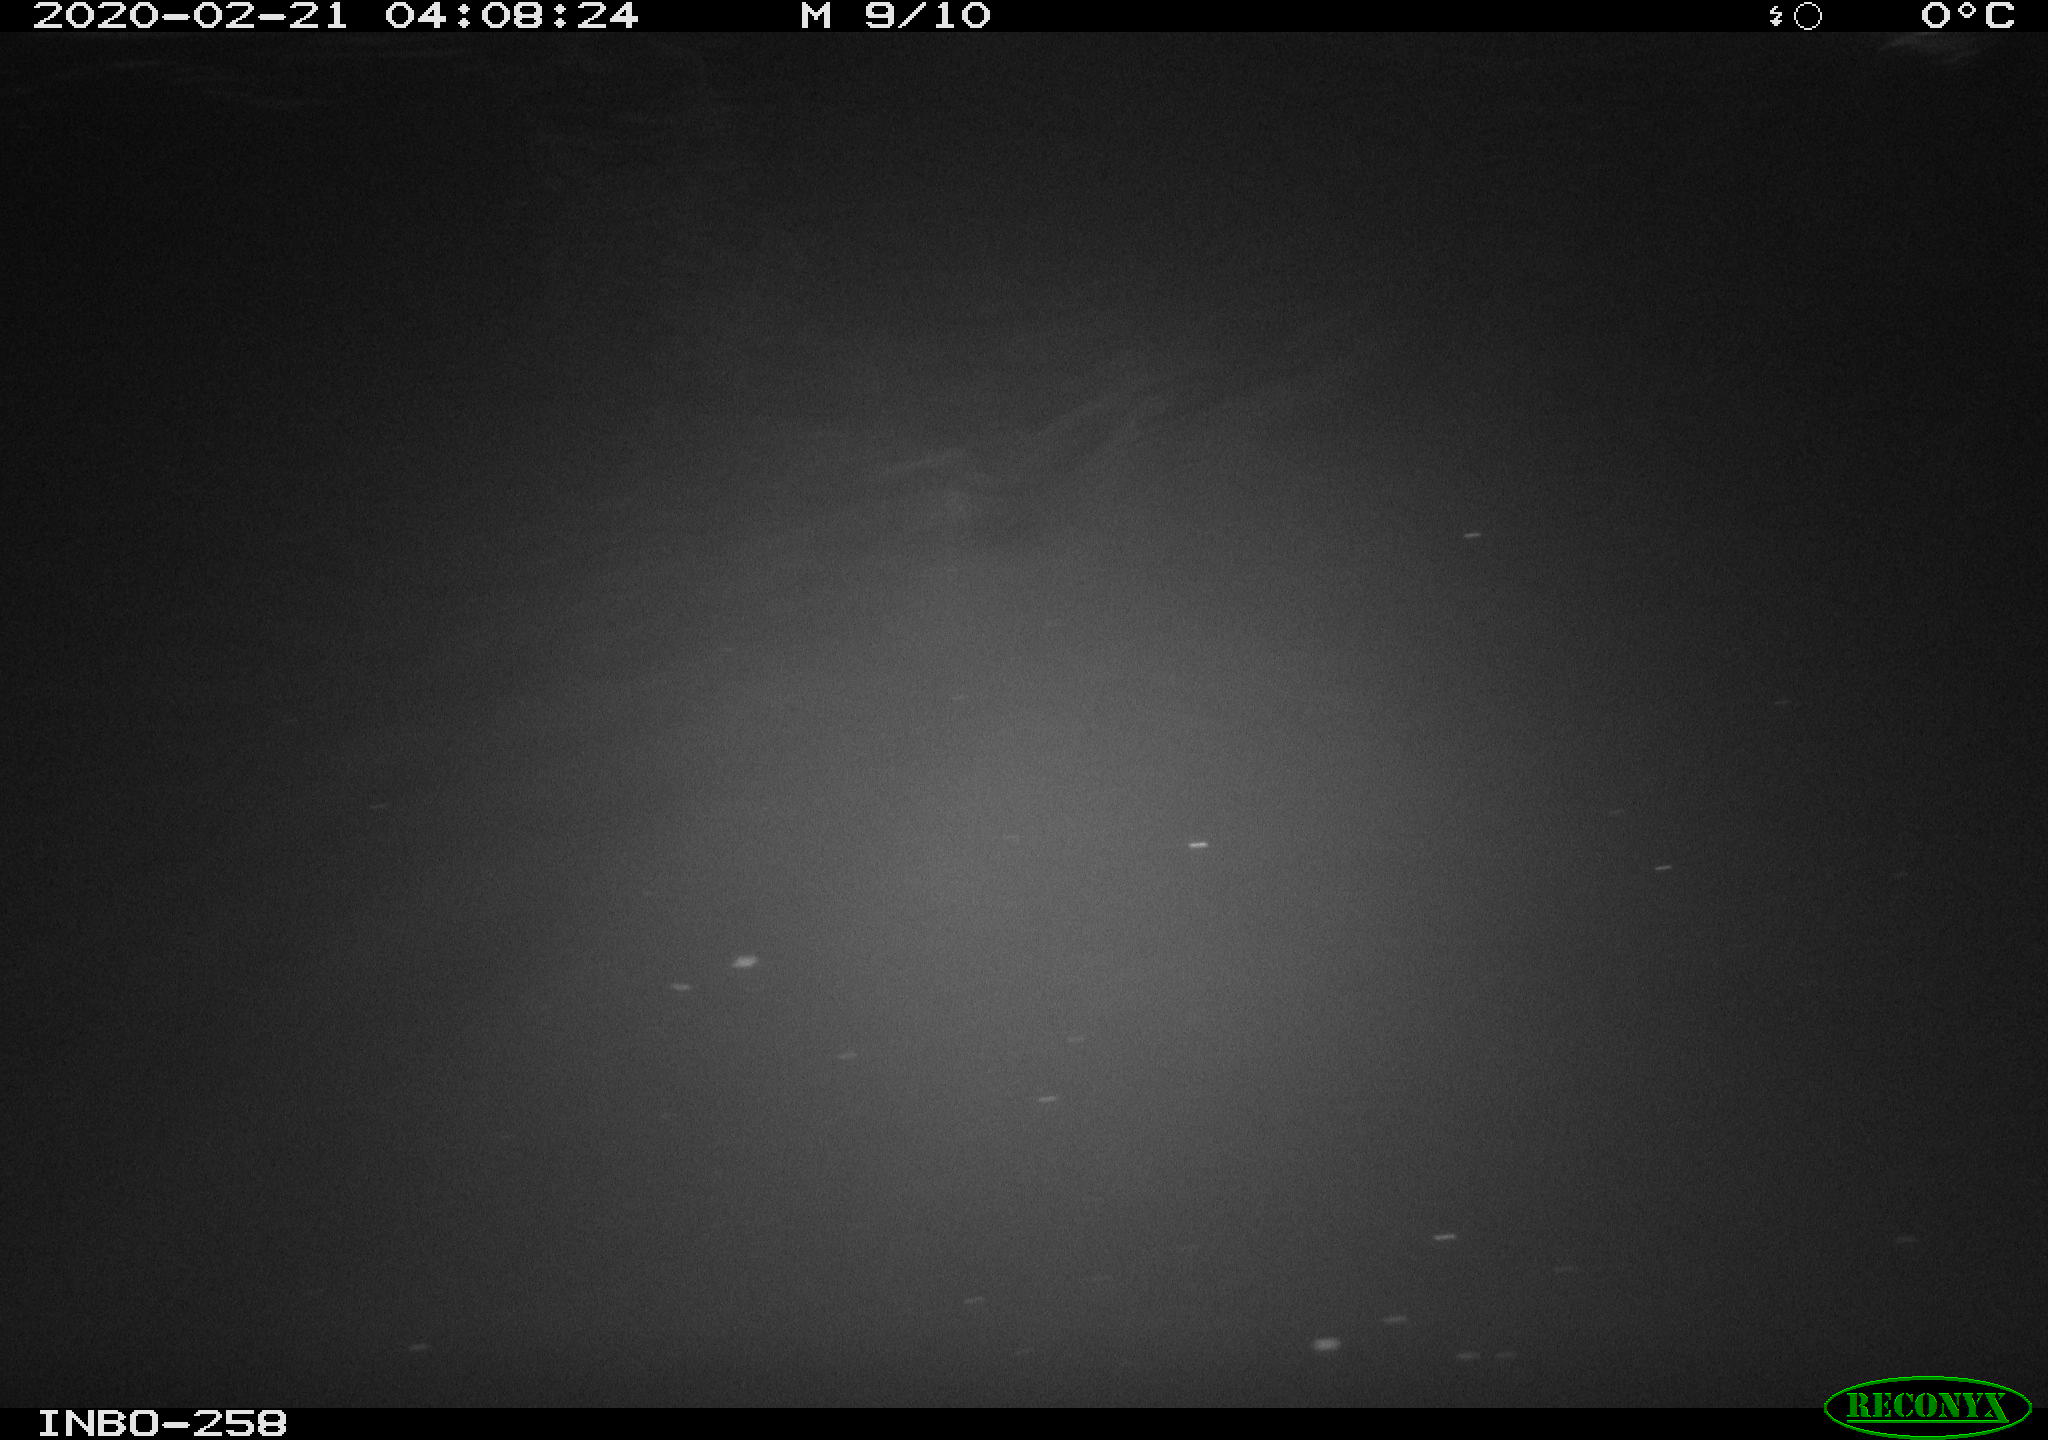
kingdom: Animalia
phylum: Chordata
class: Aves
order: Anseriformes
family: Anatidae
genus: Anas
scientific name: Anas platyrhynchos
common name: Mallard
